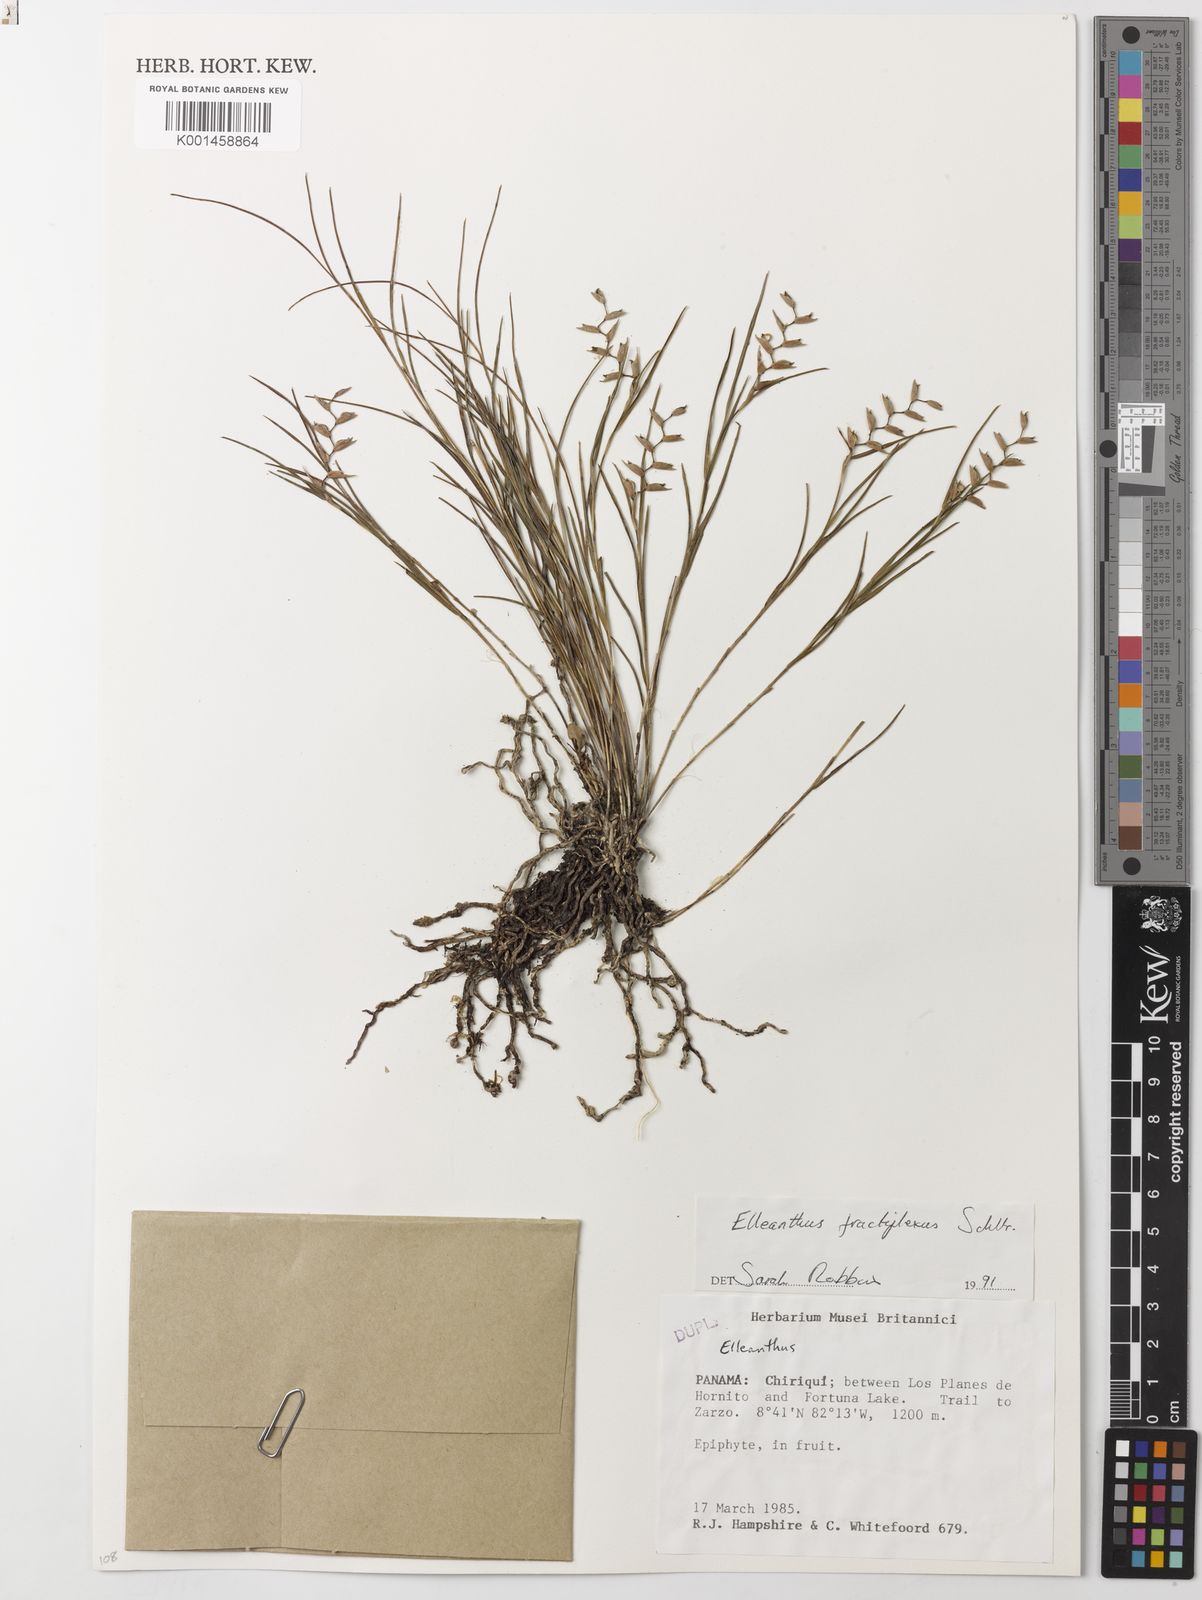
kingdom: Plantae
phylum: Tracheophyta
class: Liliopsida
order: Asparagales
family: Orchidaceae
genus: Elleanthus
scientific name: Elleanthus fractiflexus
